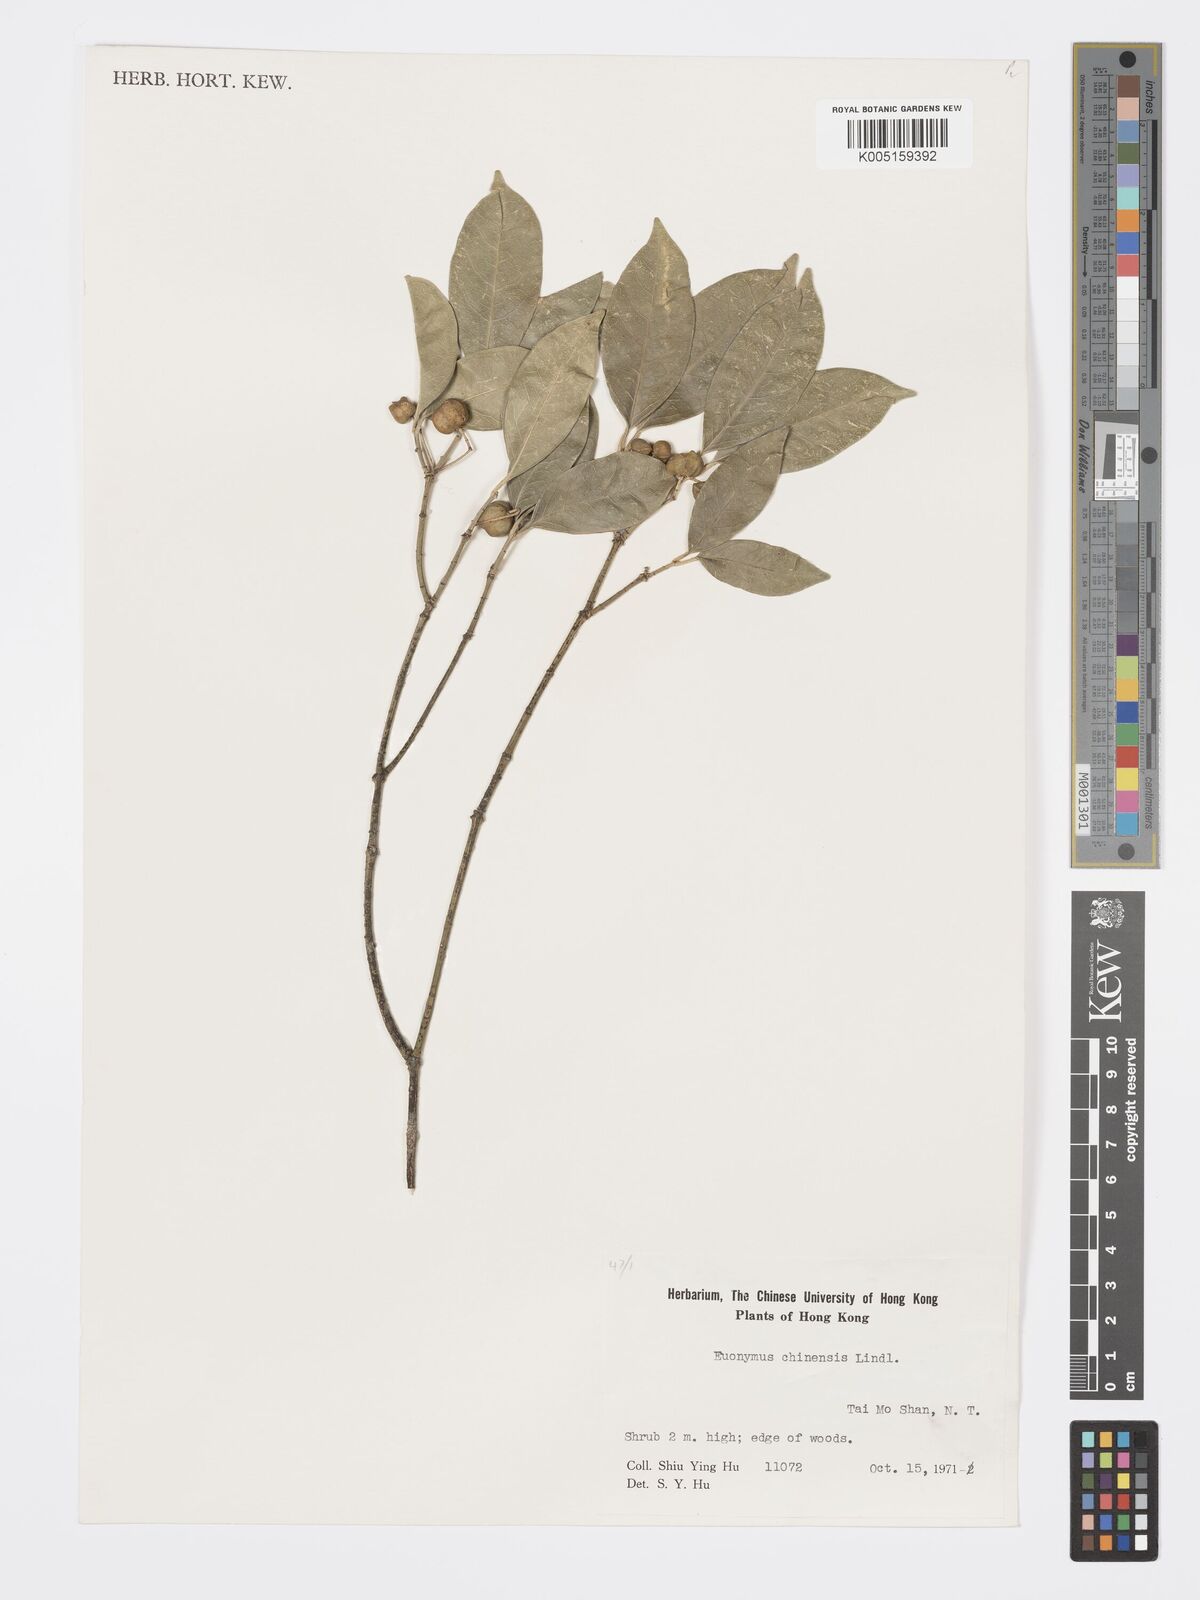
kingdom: Plantae
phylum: Tracheophyta
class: Magnoliopsida
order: Celastrales
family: Celastraceae
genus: Euonymus
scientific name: Euonymus nitidus
